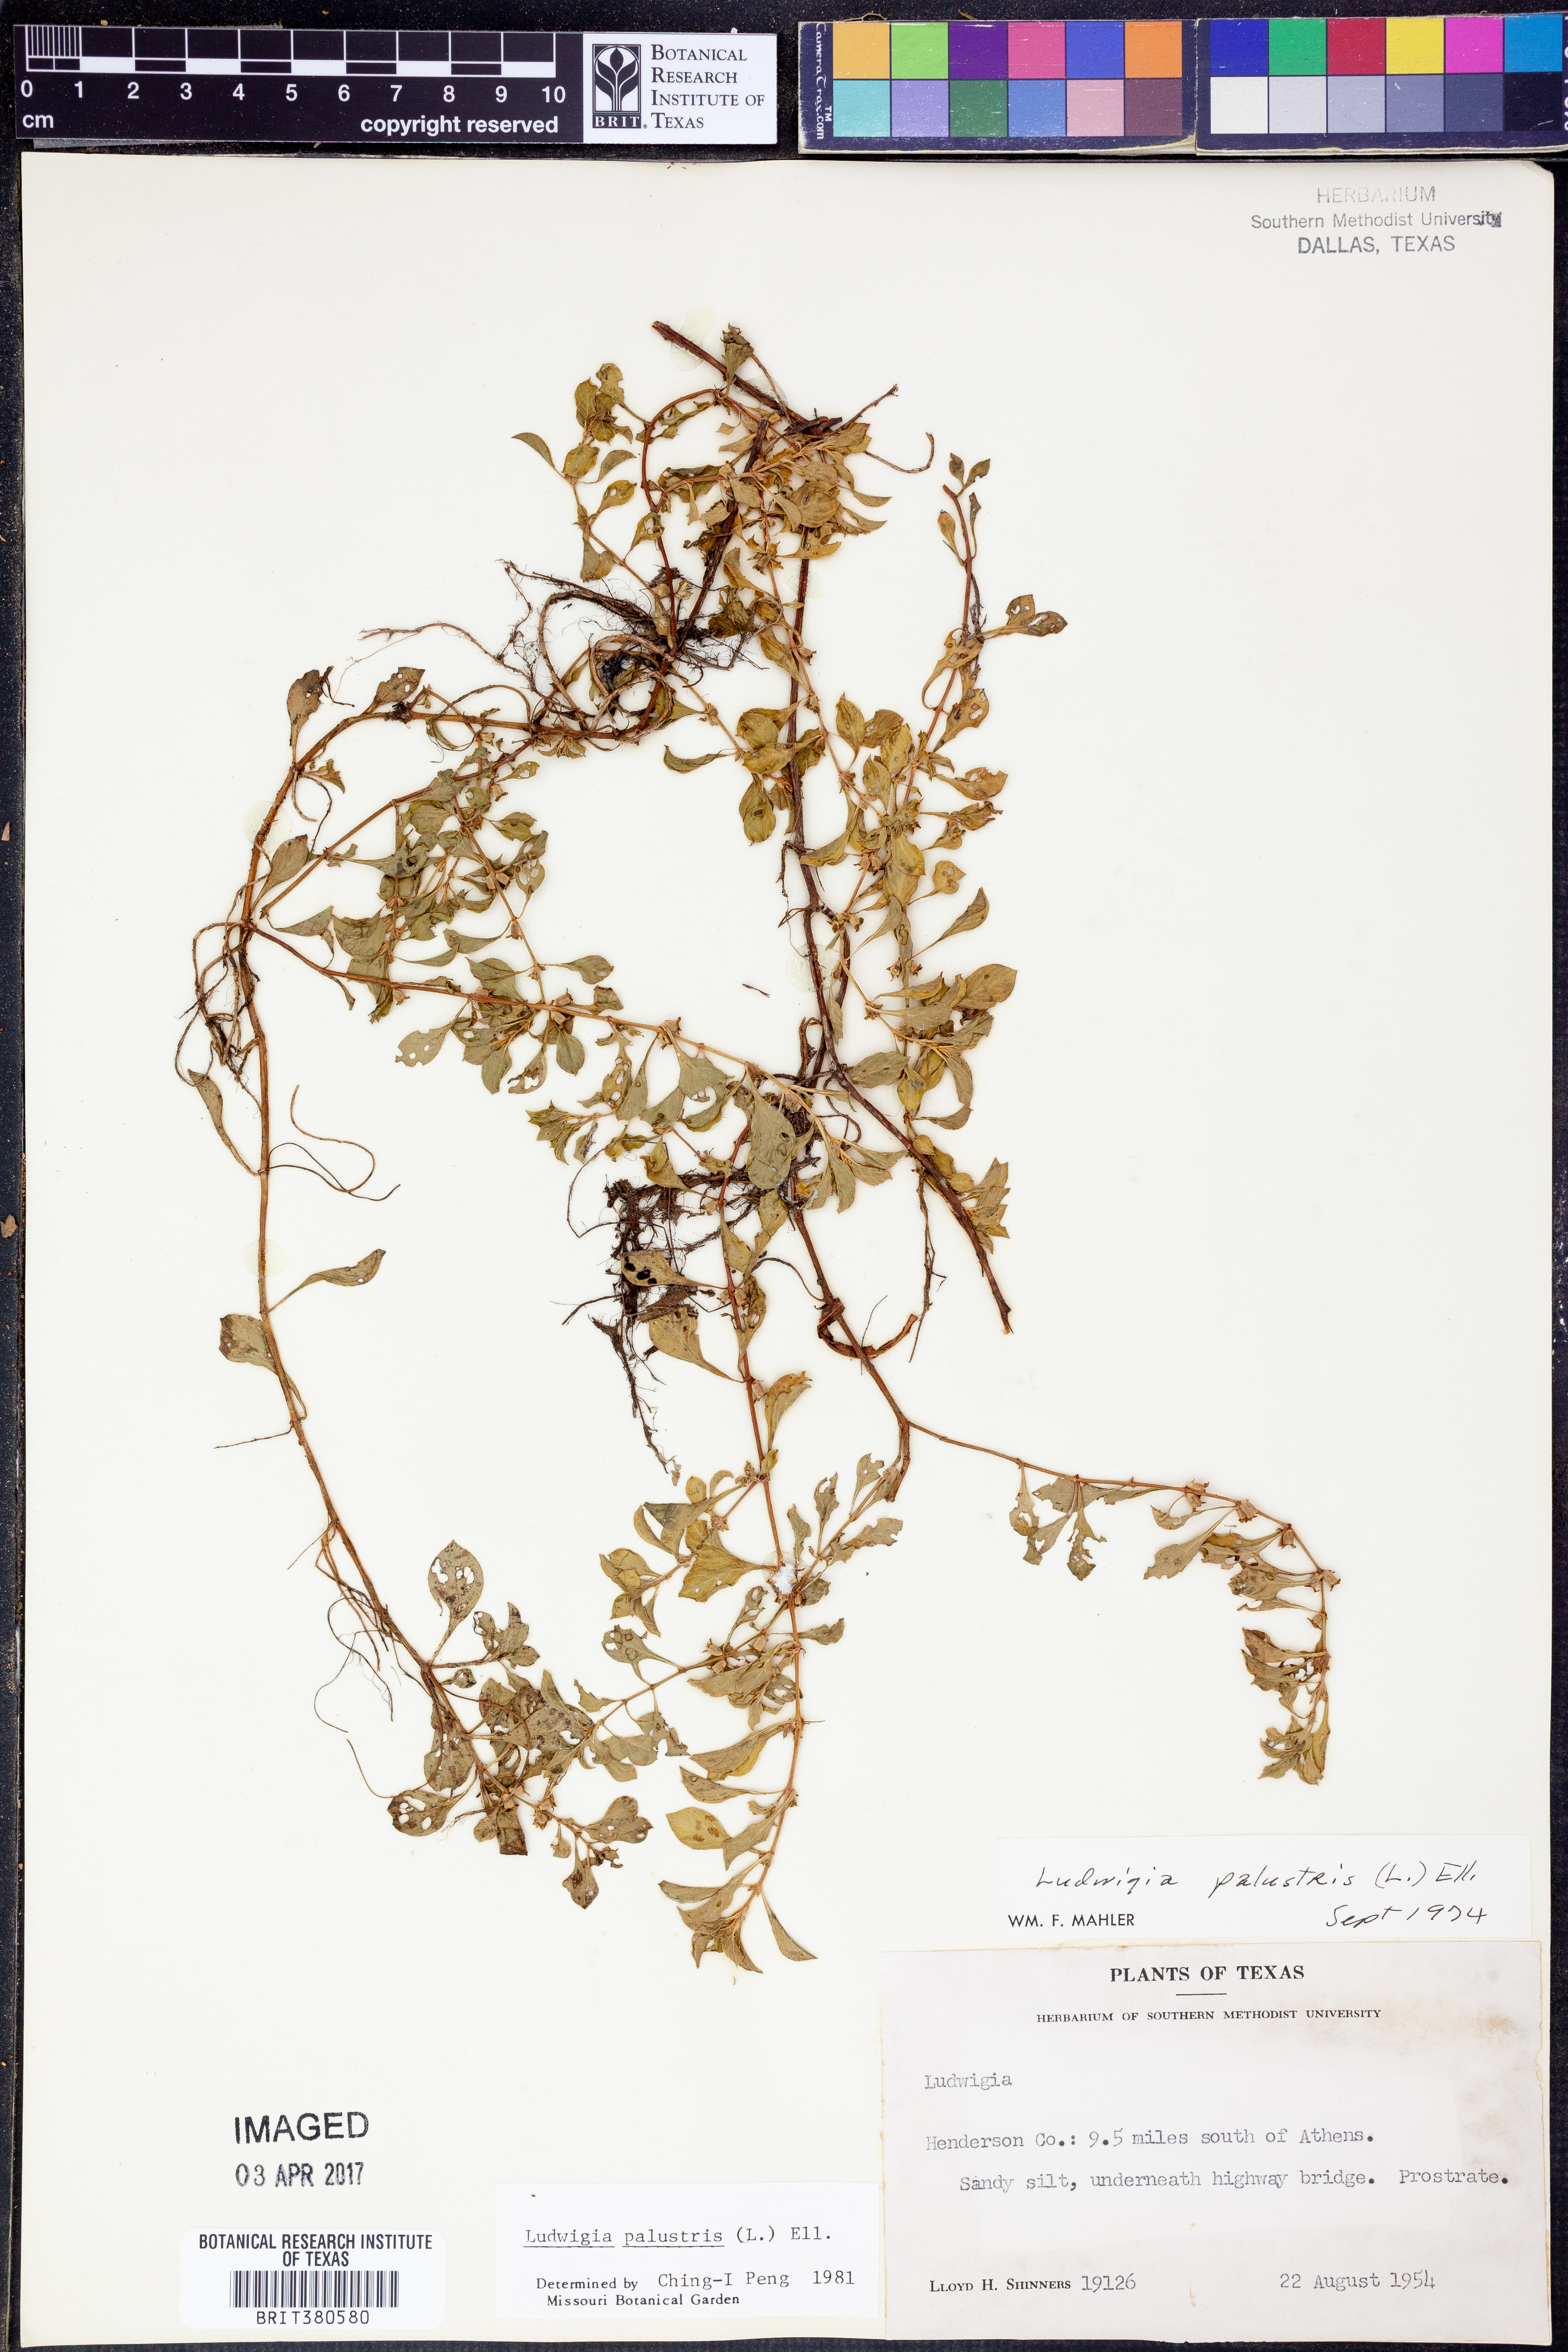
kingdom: Plantae
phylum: Tracheophyta
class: Magnoliopsida
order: Myrtales
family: Onagraceae
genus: Ludwigia
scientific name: Ludwigia palustris
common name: Hampshire-purslane
